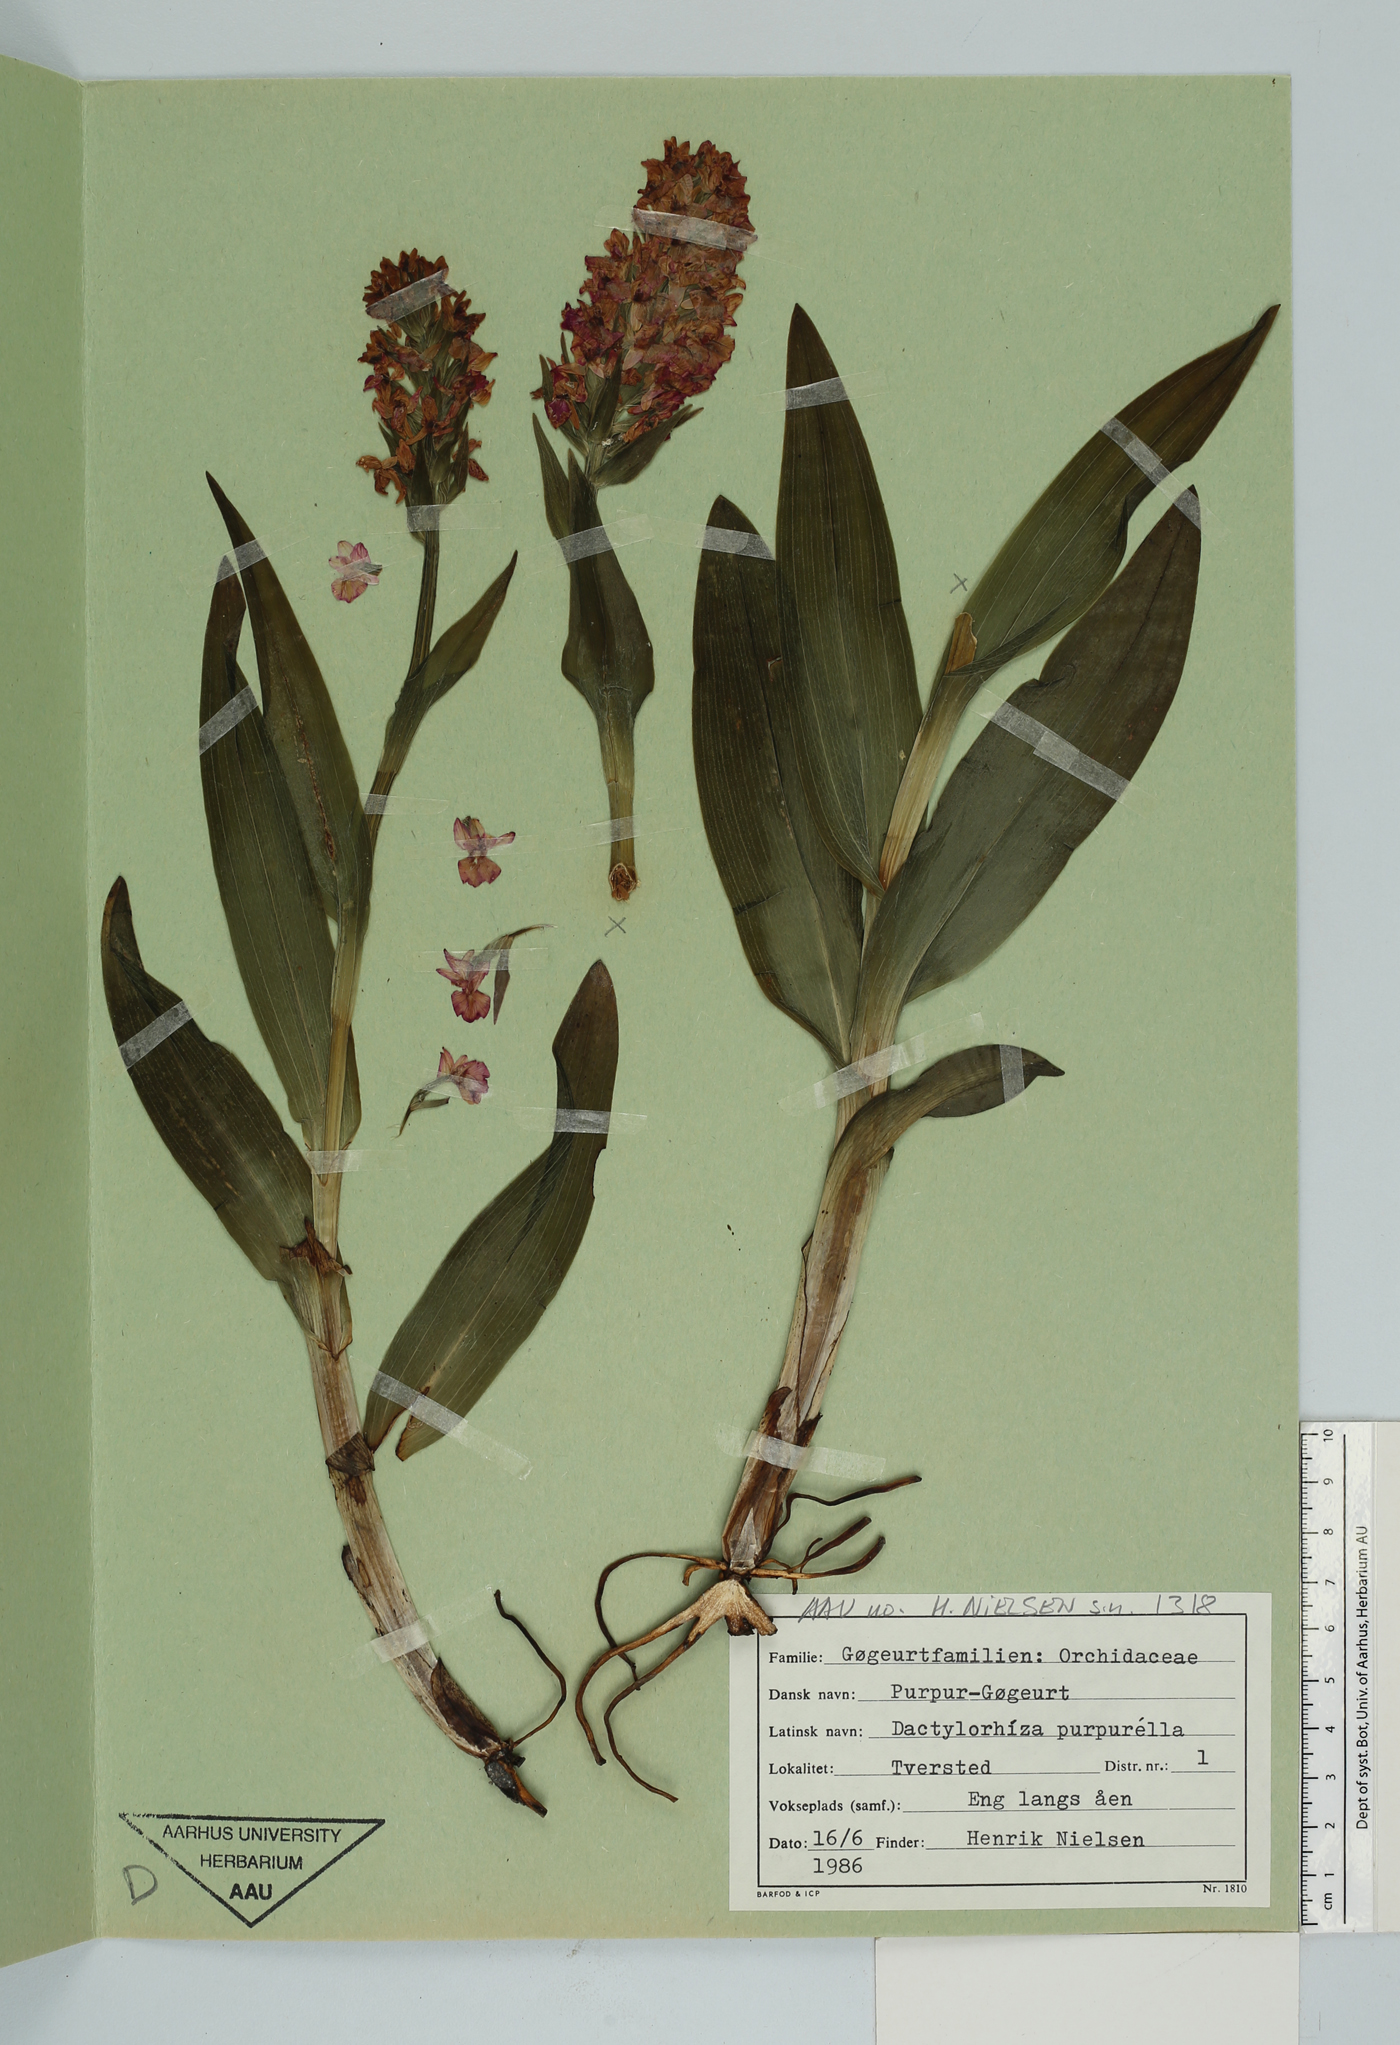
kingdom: Plantae
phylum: Tracheophyta
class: Liliopsida
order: Asparagales
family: Orchidaceae
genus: Dactylorhiza
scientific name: Dactylorhiza majalis
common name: Marsh orchid
